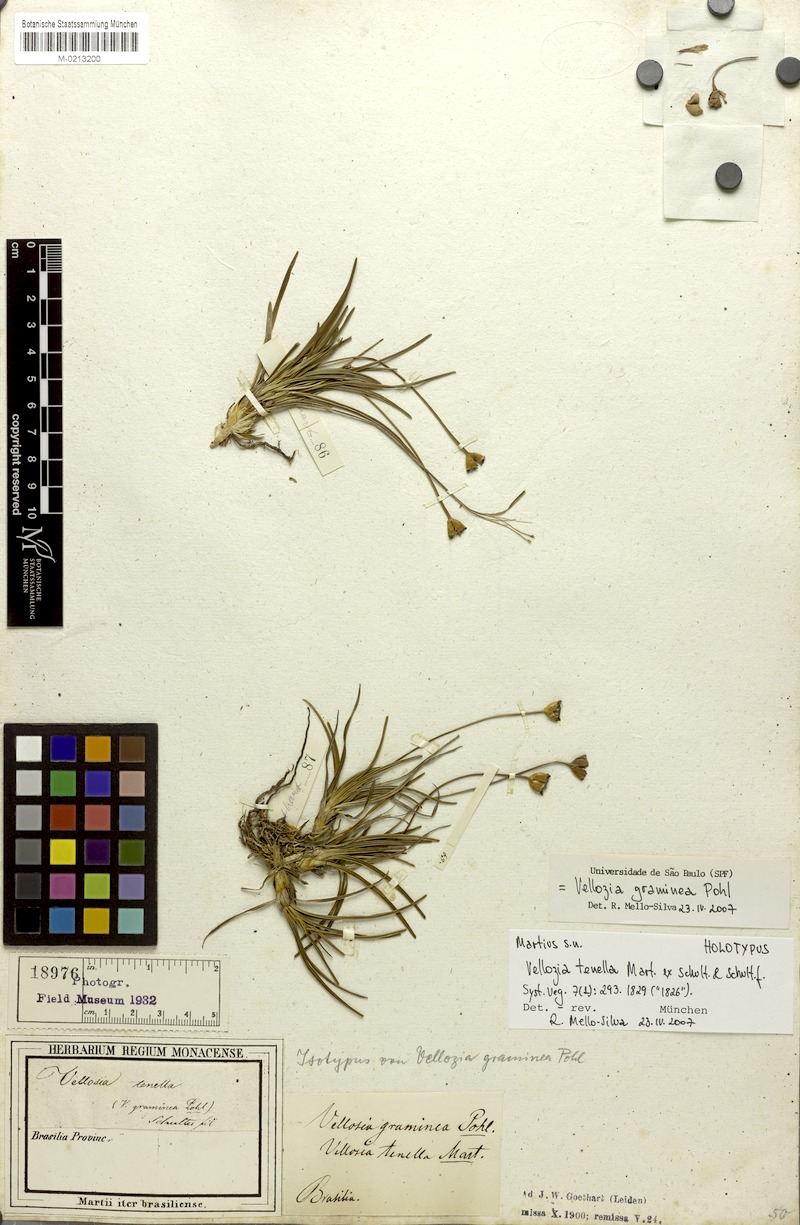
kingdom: Plantae
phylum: Tracheophyta
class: Liliopsida
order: Pandanales
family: Velloziaceae
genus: Vellozia
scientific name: Vellozia graminea
